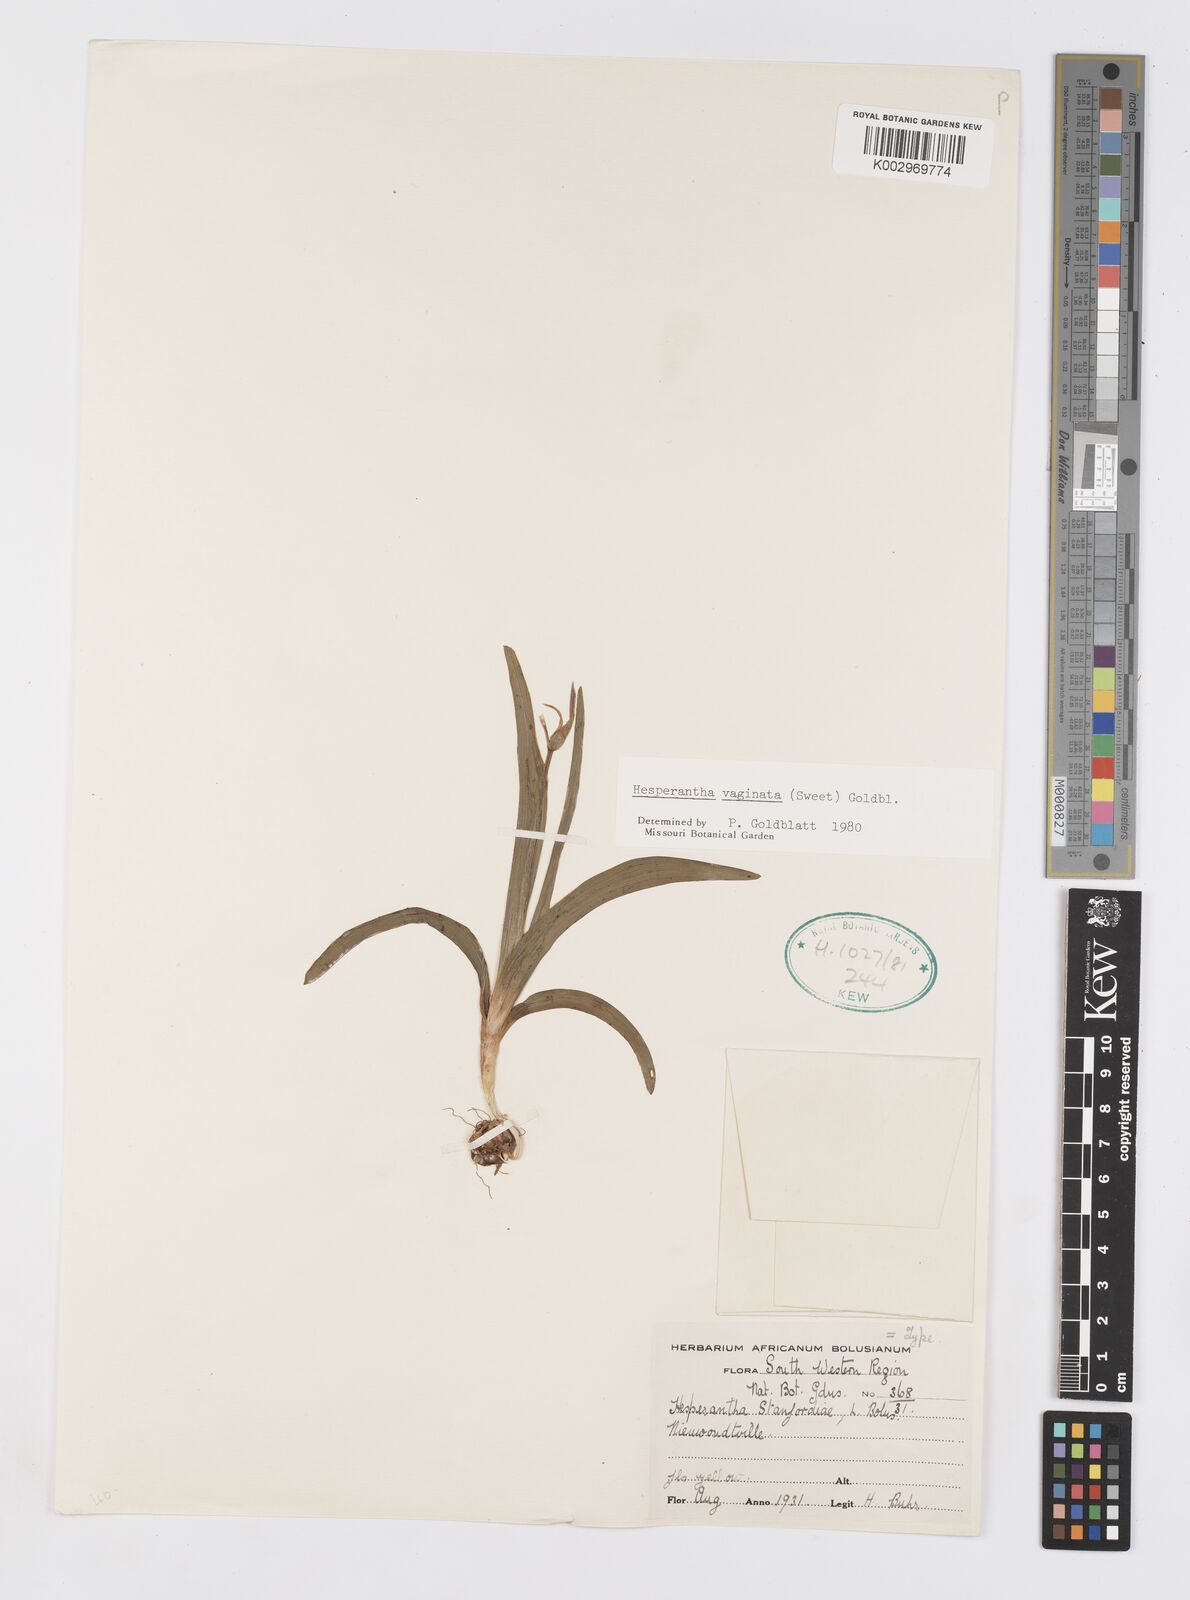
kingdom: Plantae
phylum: Tracheophyta
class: Liliopsida
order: Asparagales
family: Iridaceae
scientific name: Iridaceae
